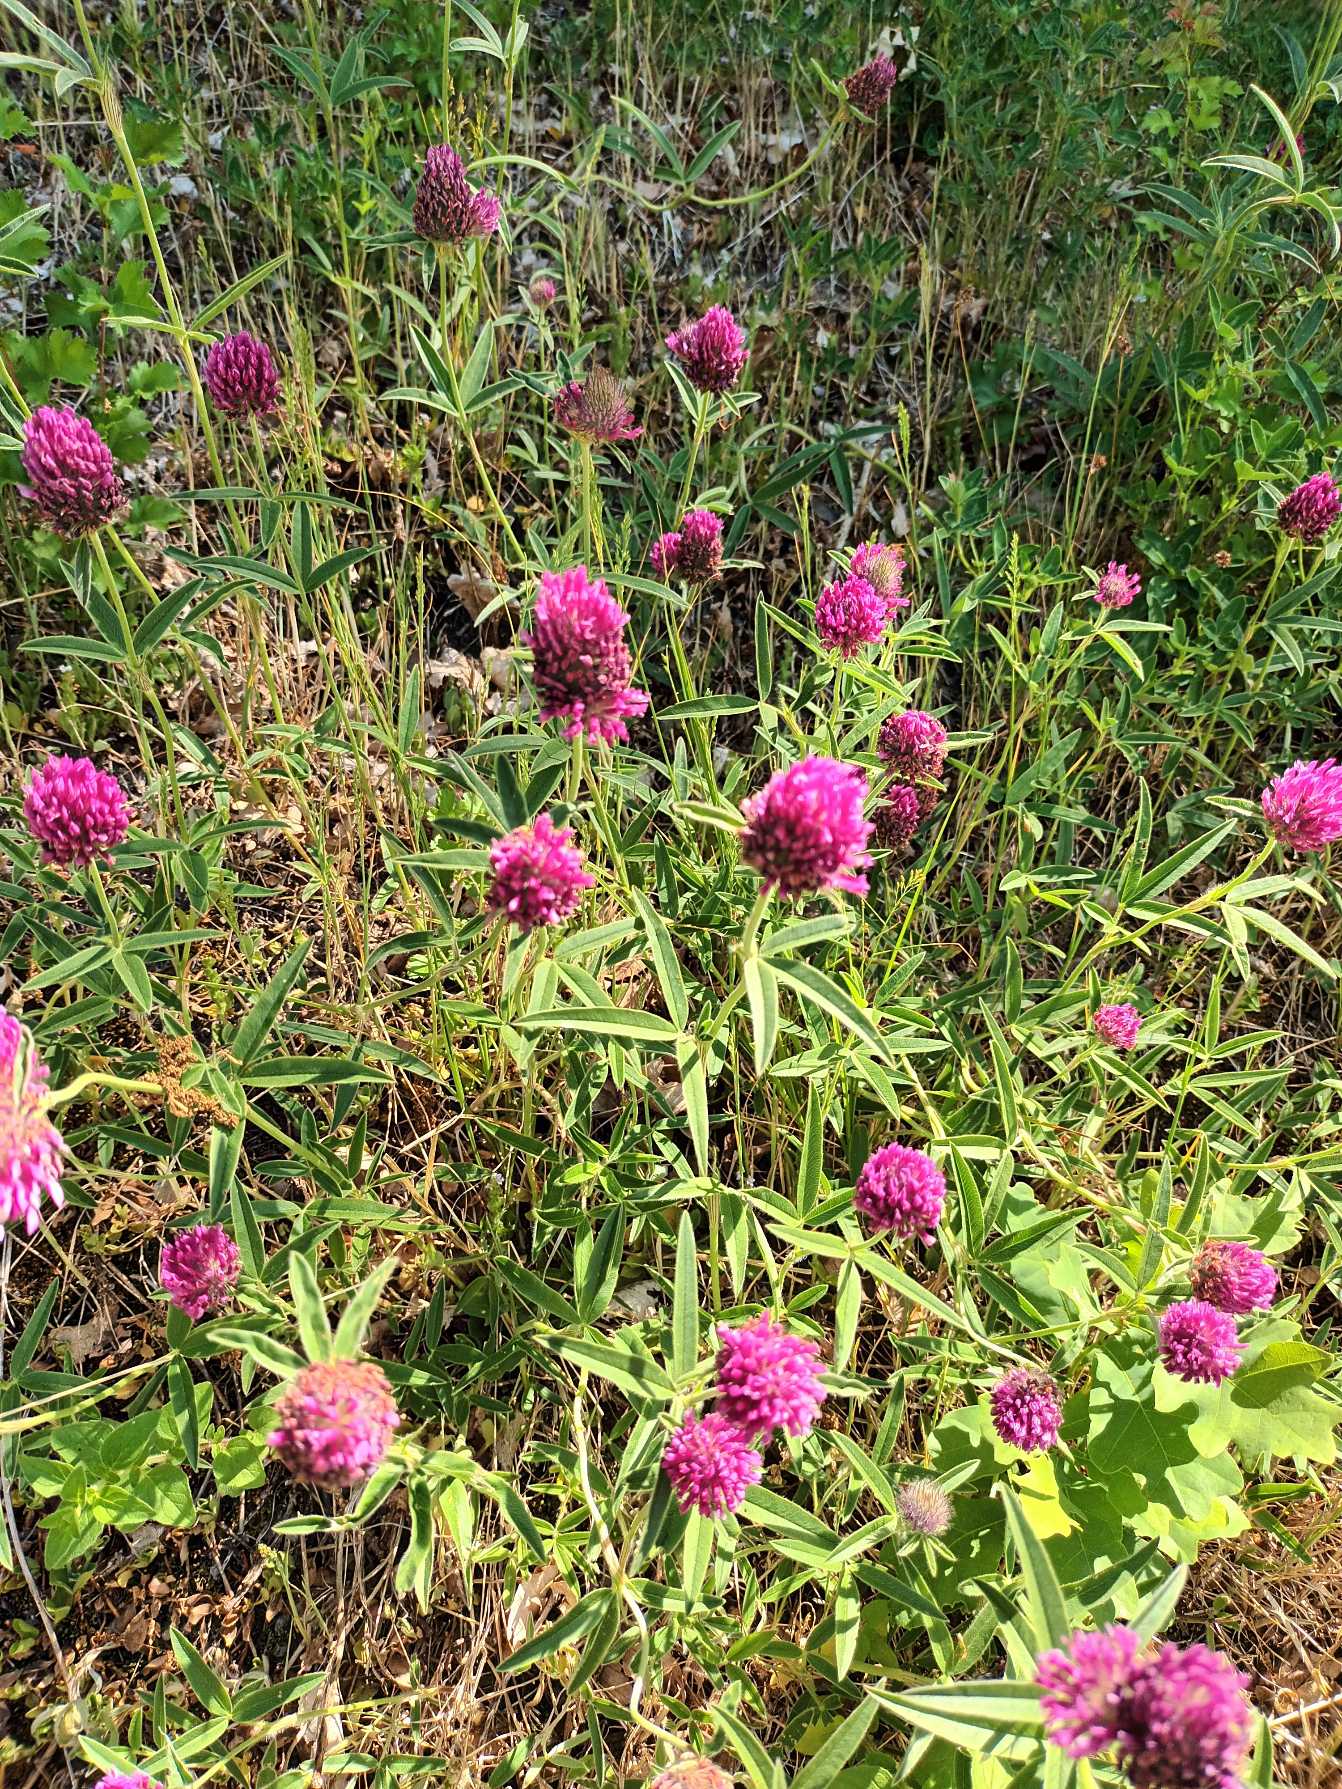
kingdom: Plantae
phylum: Tracheophyta
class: Magnoliopsida
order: Fabales
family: Fabaceae
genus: Trifolium
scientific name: Trifolium alpestre
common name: Skov-kløver
